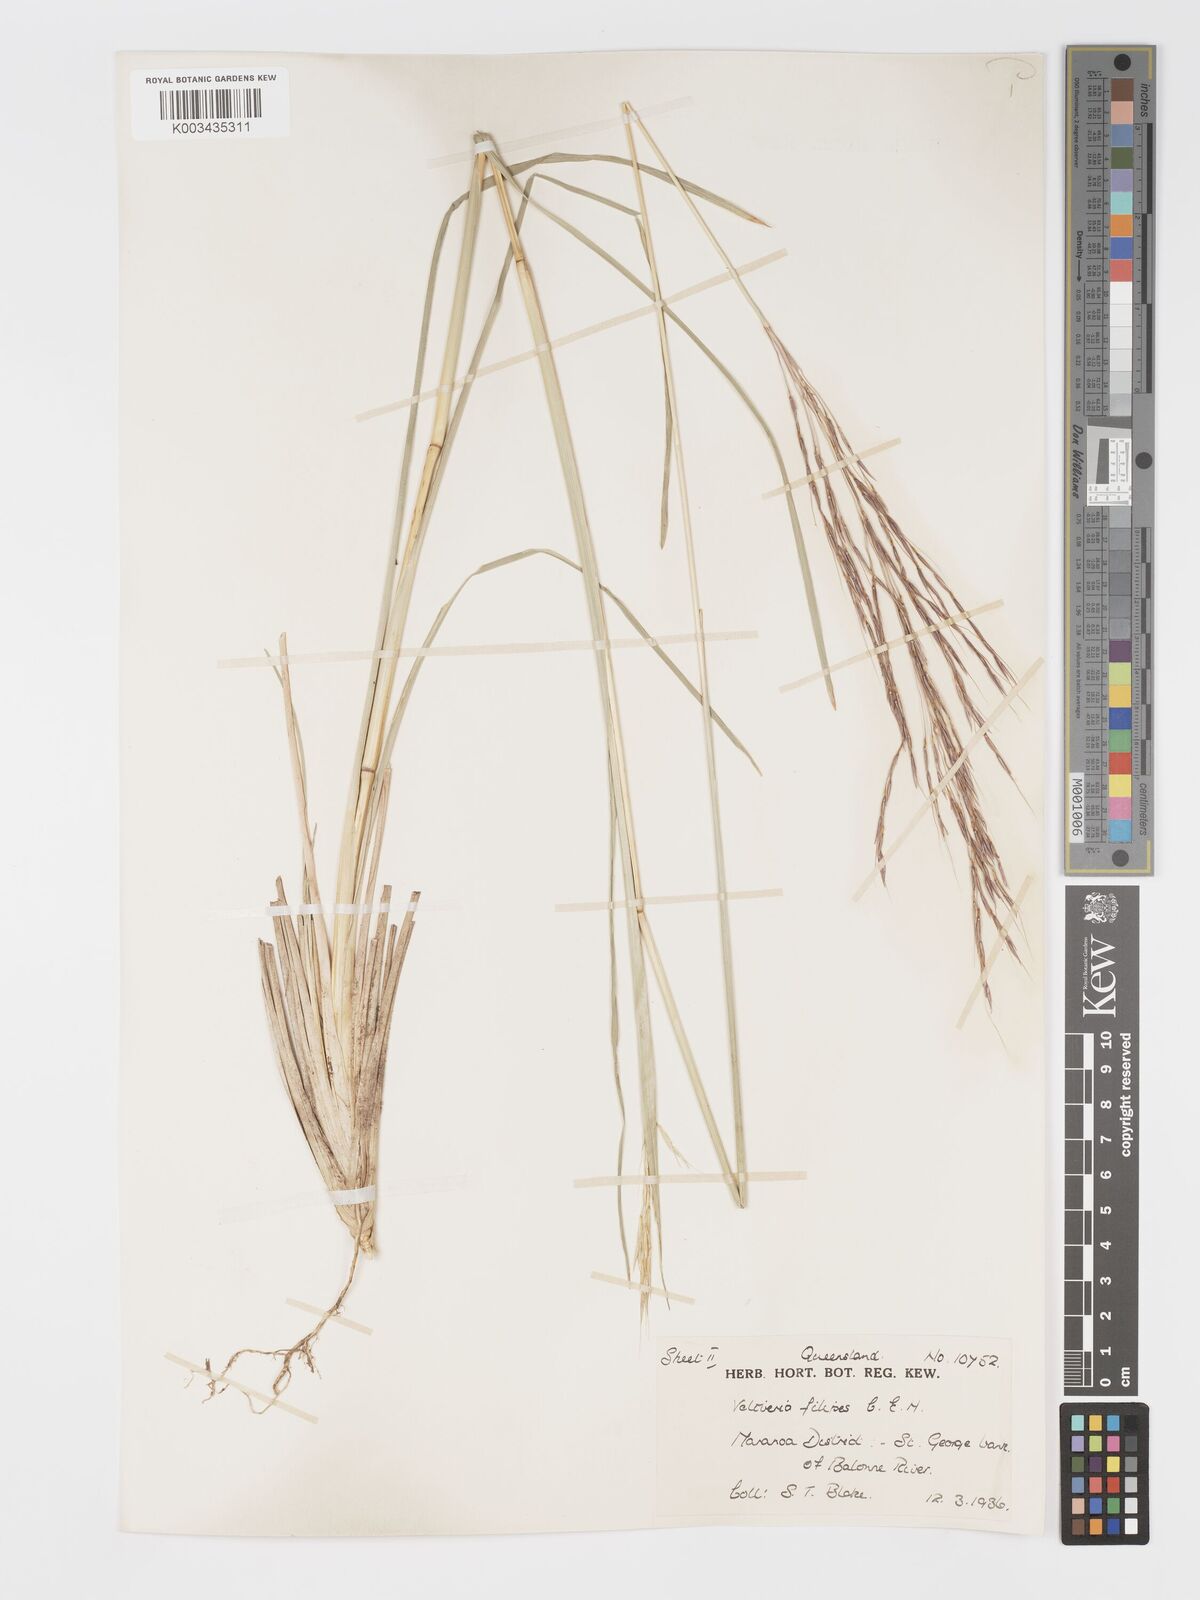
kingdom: Plantae
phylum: Tracheophyta
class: Liliopsida
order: Poales
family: Poaceae
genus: Chrysopogon
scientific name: Chrysopogon filipes
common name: Australian vetiver
